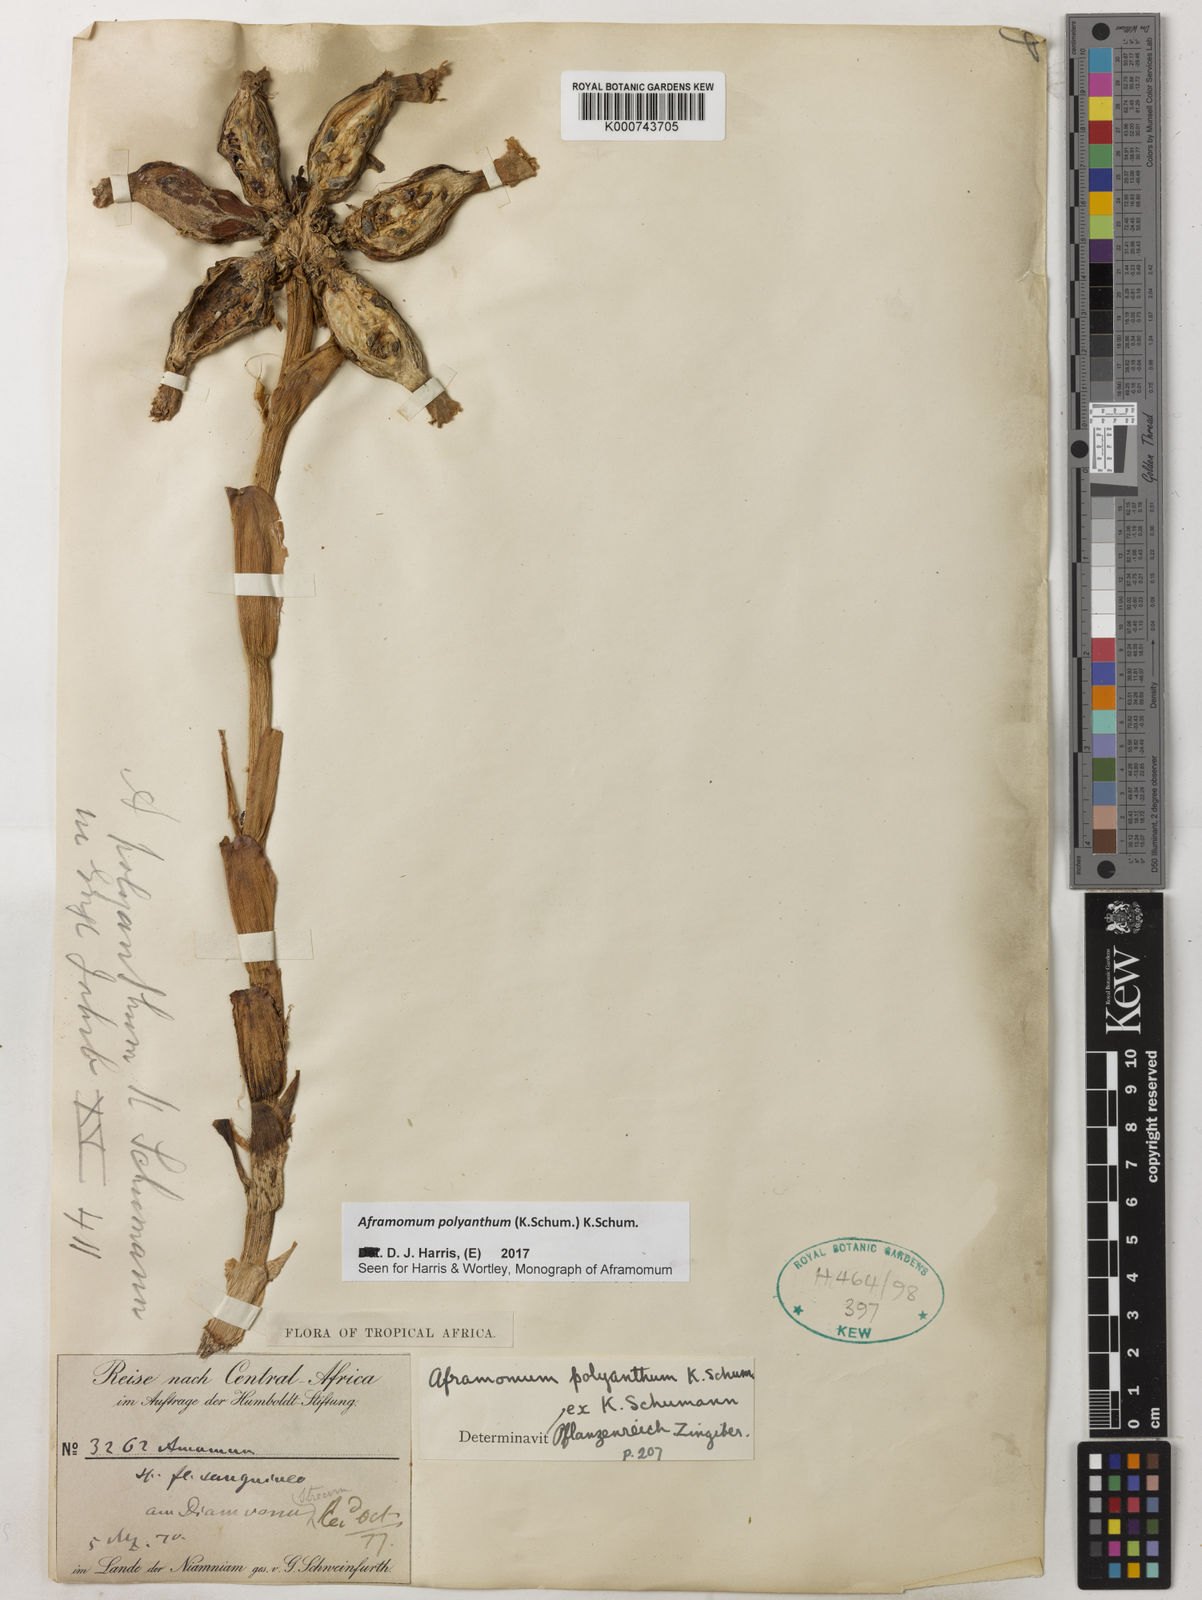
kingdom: Plantae
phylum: Tracheophyta
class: Liliopsida
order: Zingiberales
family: Zingiberaceae
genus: Aframomum
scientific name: Aframomum polyanthum
